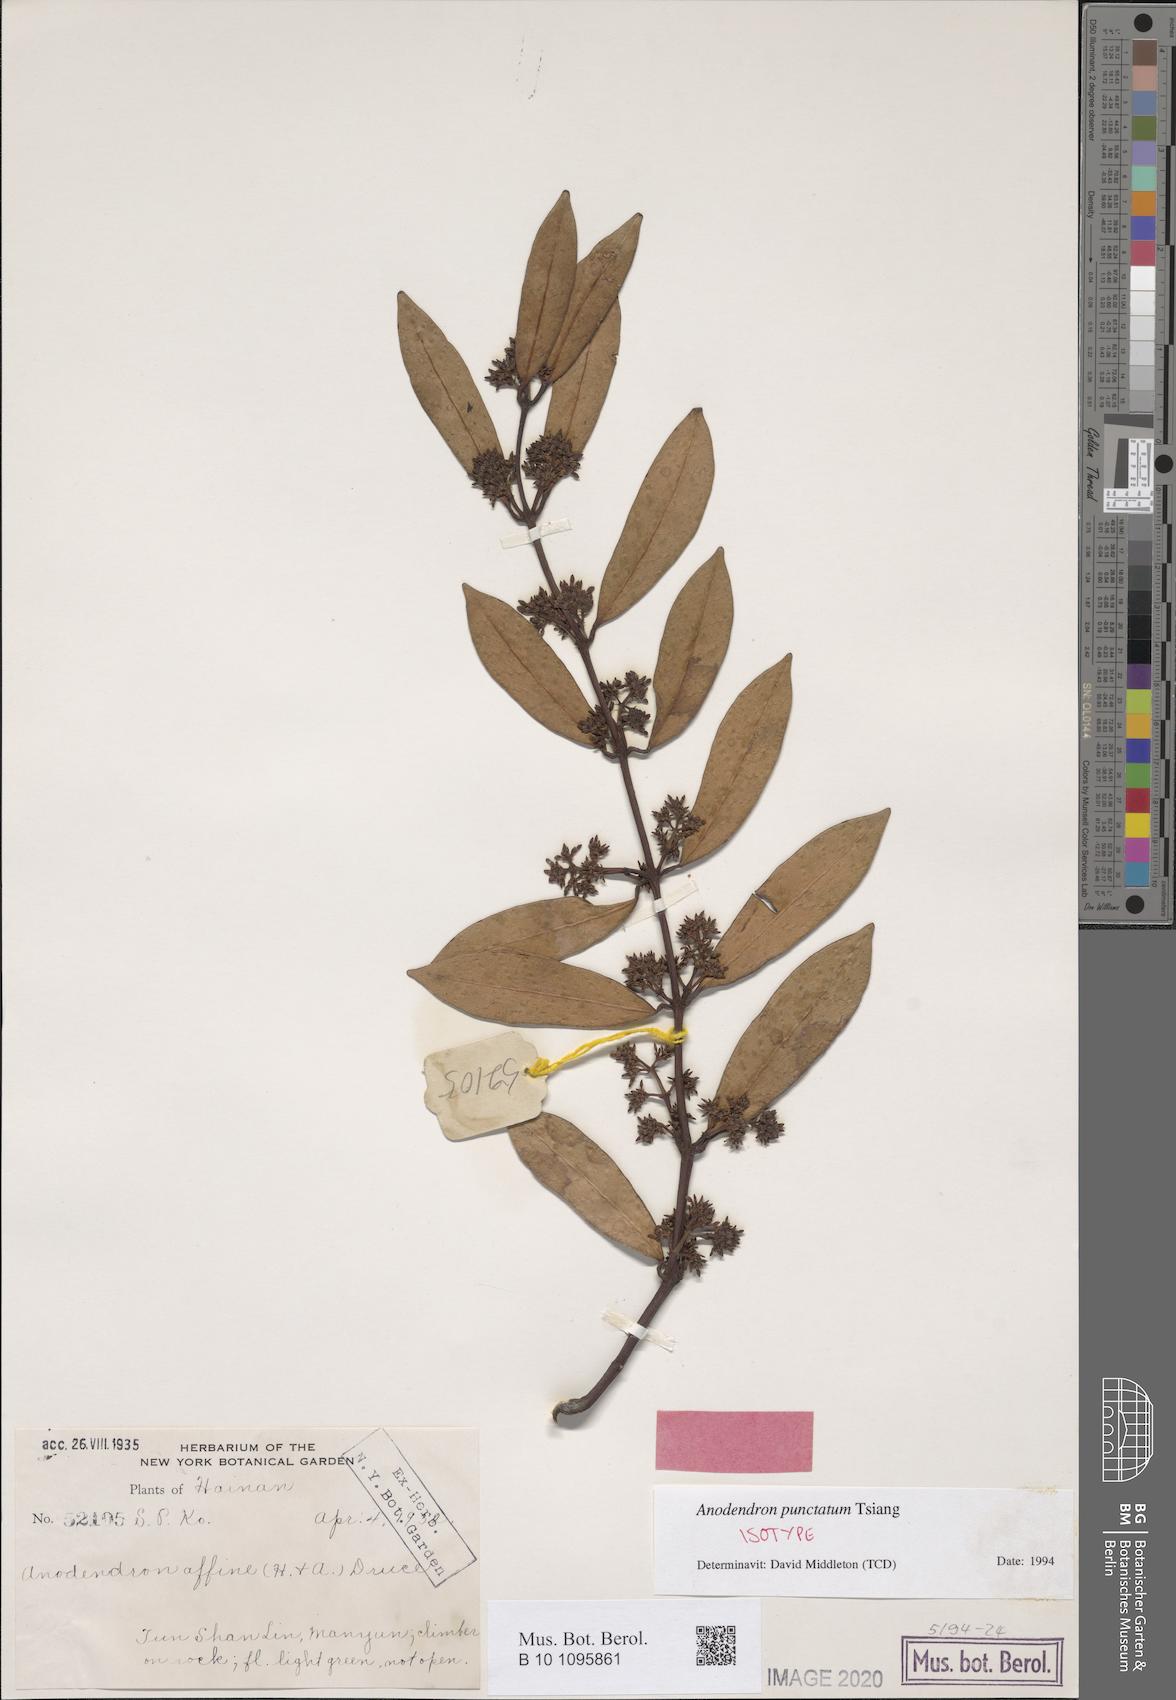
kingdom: Plantae
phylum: Tracheophyta
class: Magnoliopsida
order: Gentianales
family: Apocynaceae
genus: Anodendron
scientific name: Anodendron punctatum
